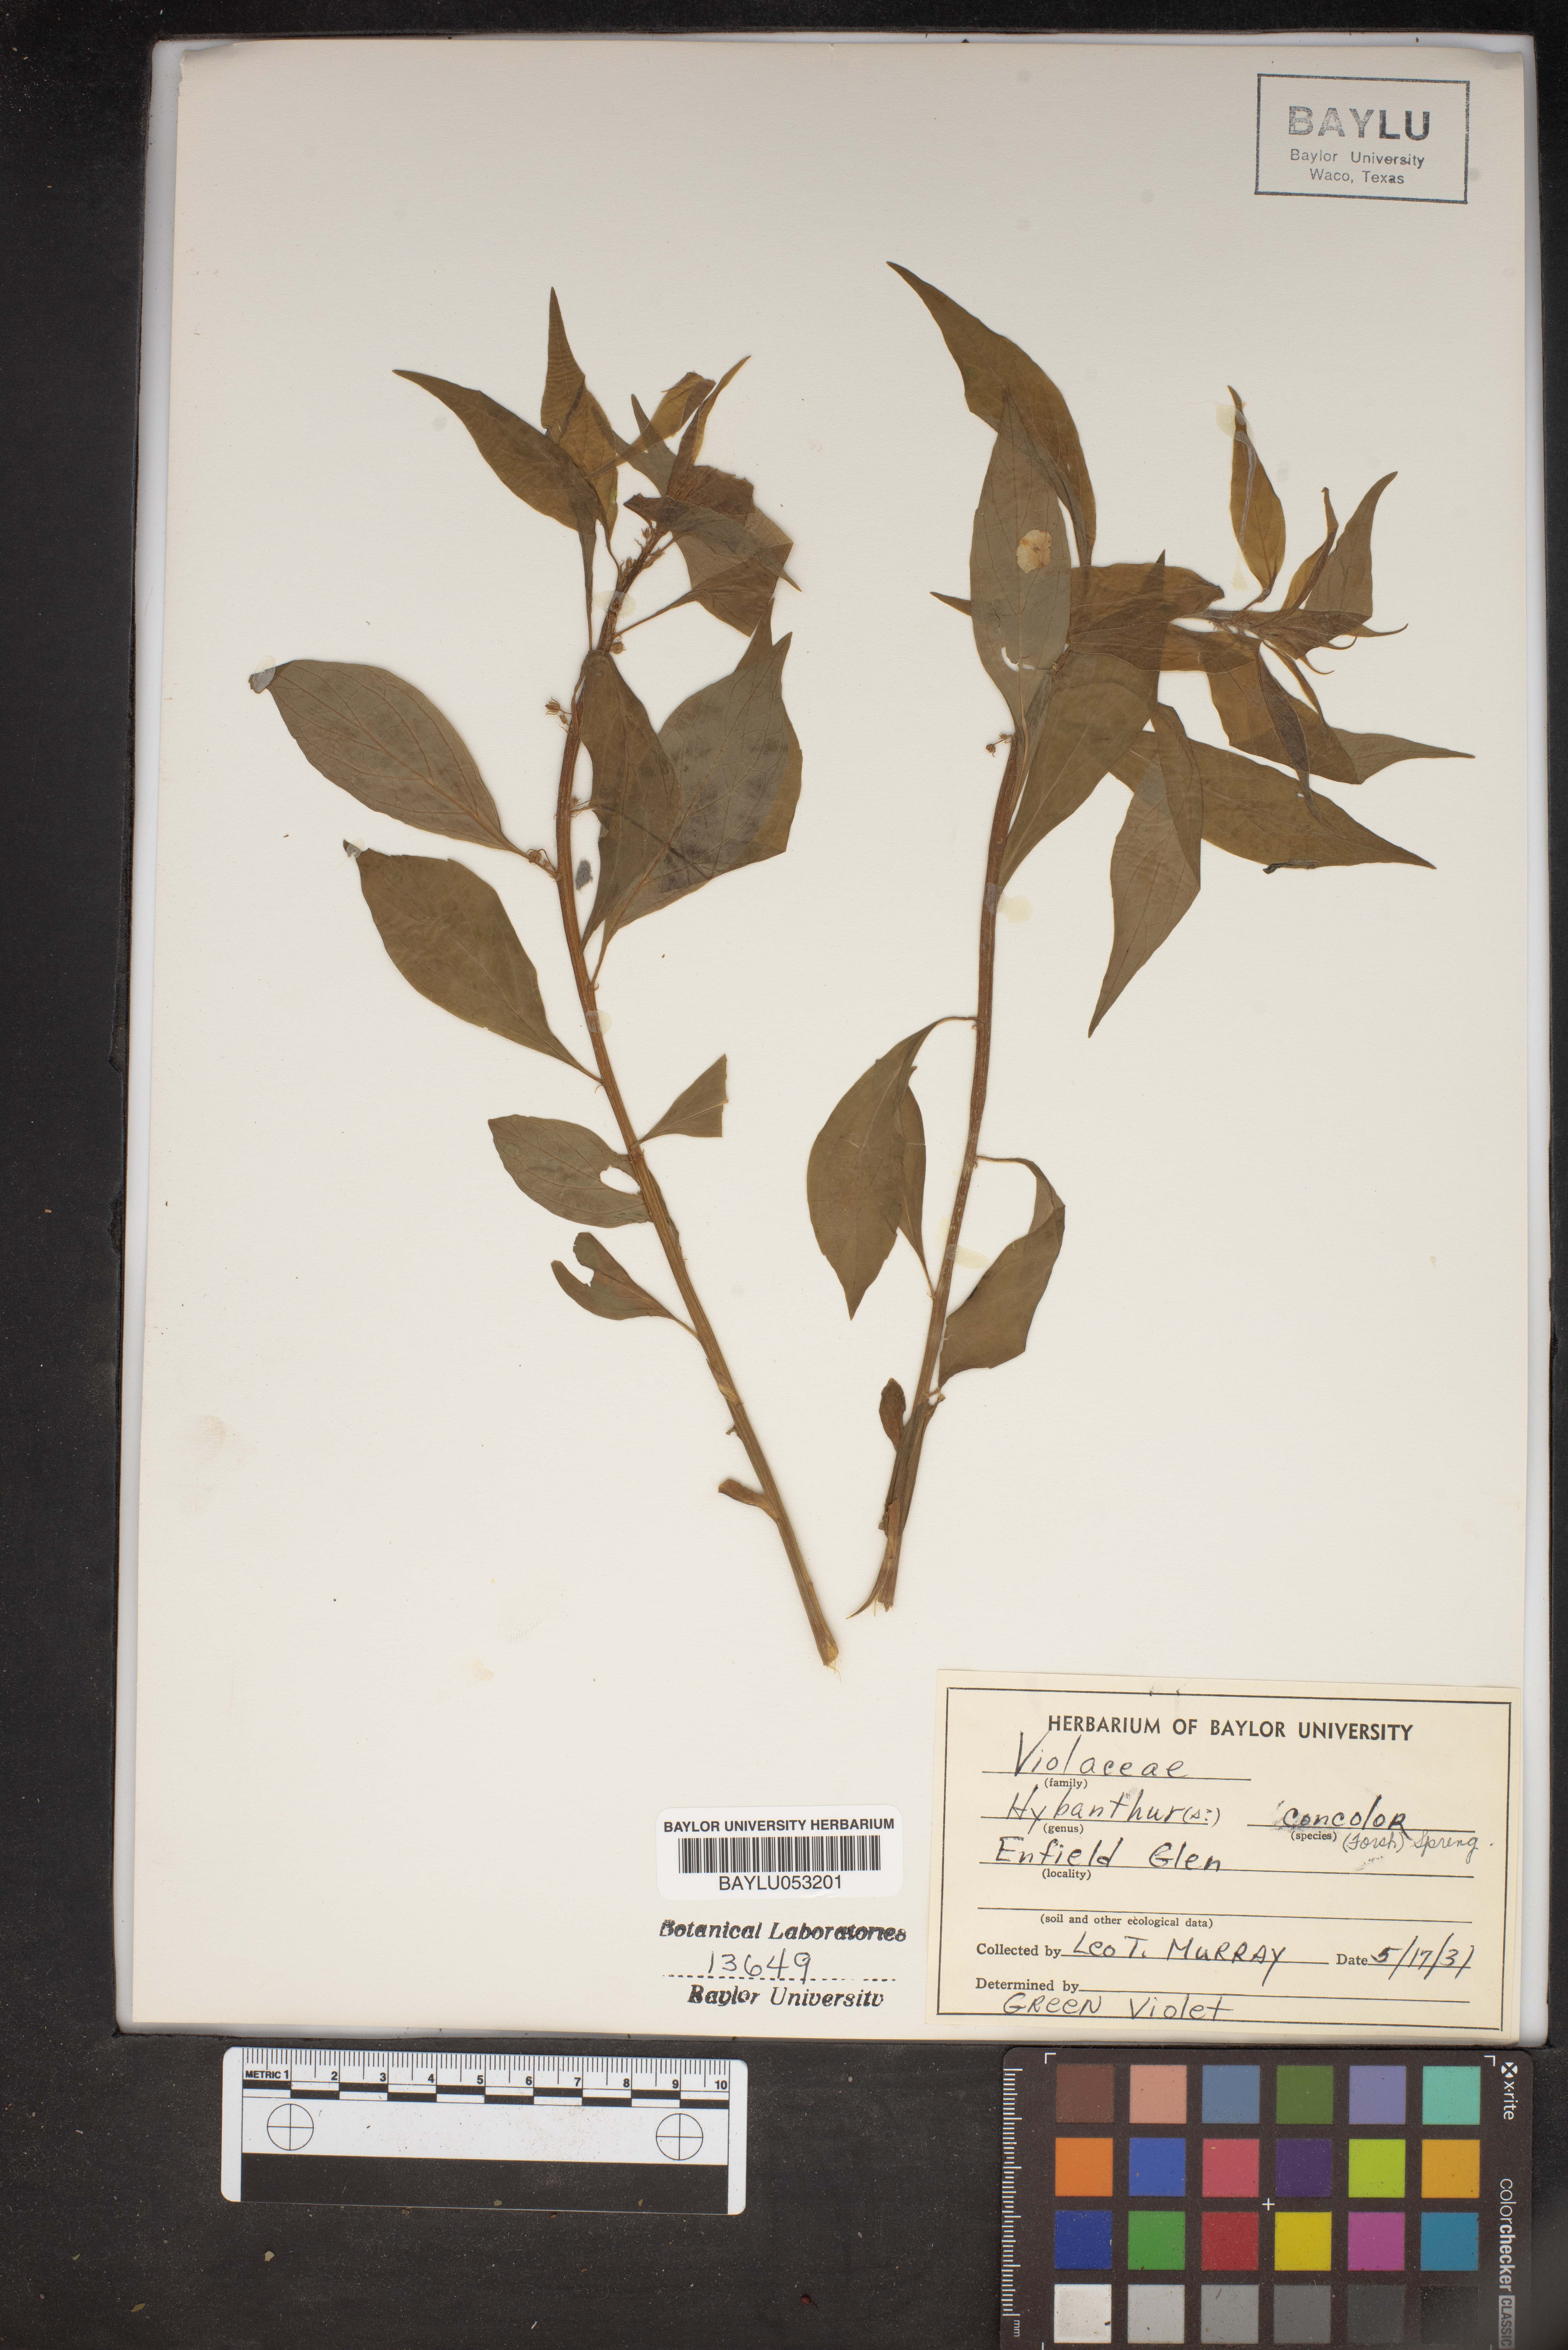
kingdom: Plantae
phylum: Tracheophyta
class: Magnoliopsida
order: Malpighiales
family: Violaceae
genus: Cubelium
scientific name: Cubelium concolor
